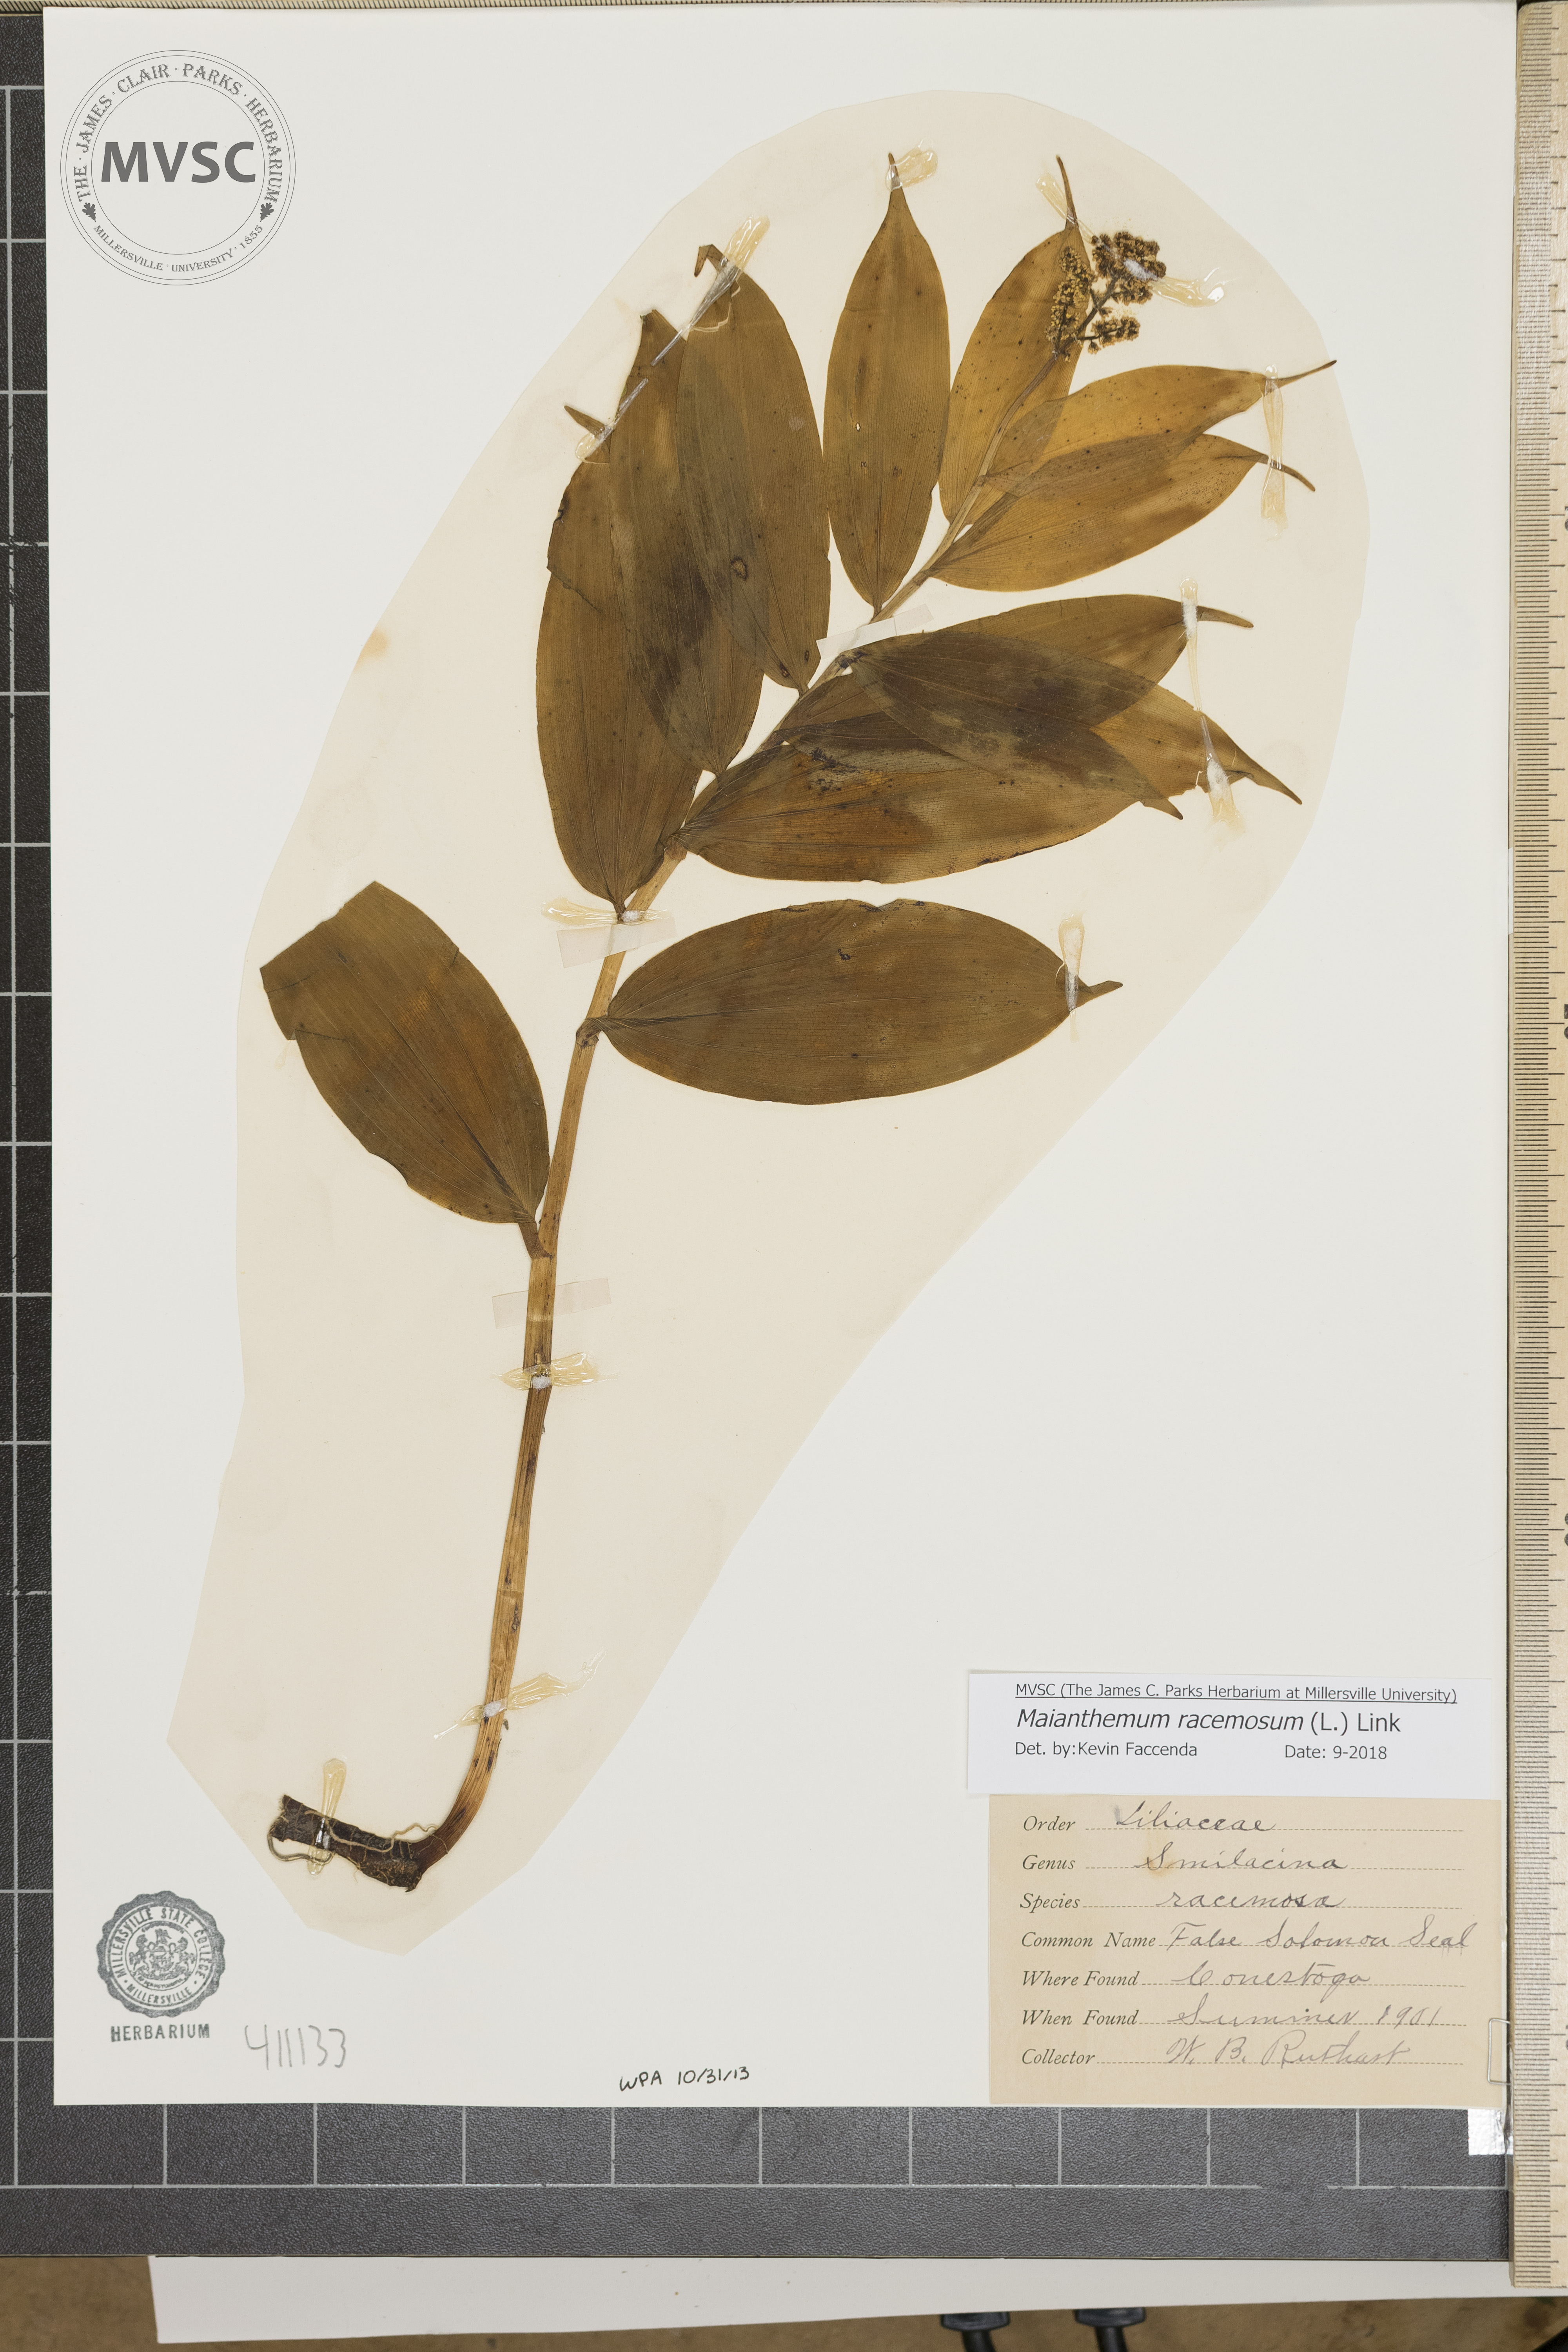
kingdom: Plantae
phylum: Tracheophyta
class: Liliopsida
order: Asparagales
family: Asparagaceae
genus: Maianthemum
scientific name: Maianthemum racemosum
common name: False spikenard
